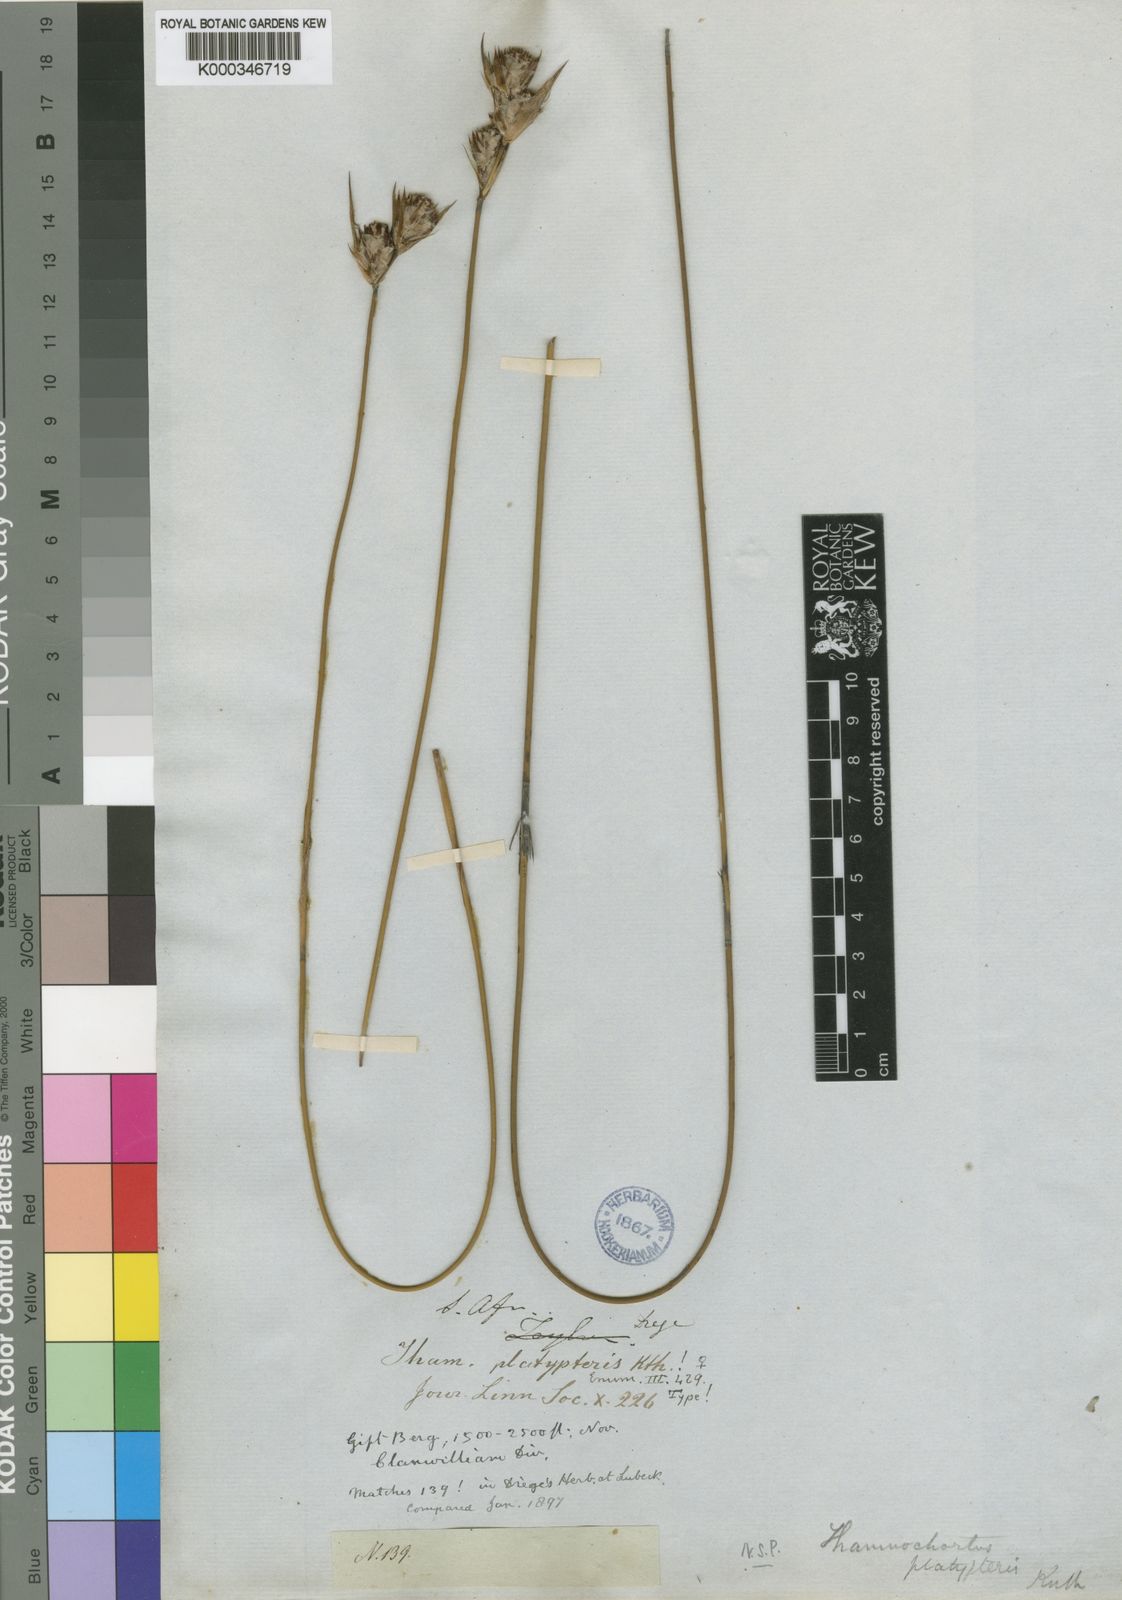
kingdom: Plantae
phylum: Tracheophyta
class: Liliopsida
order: Poales
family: Restionaceae
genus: Thamnochortus
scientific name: Thamnochortus platypteris
